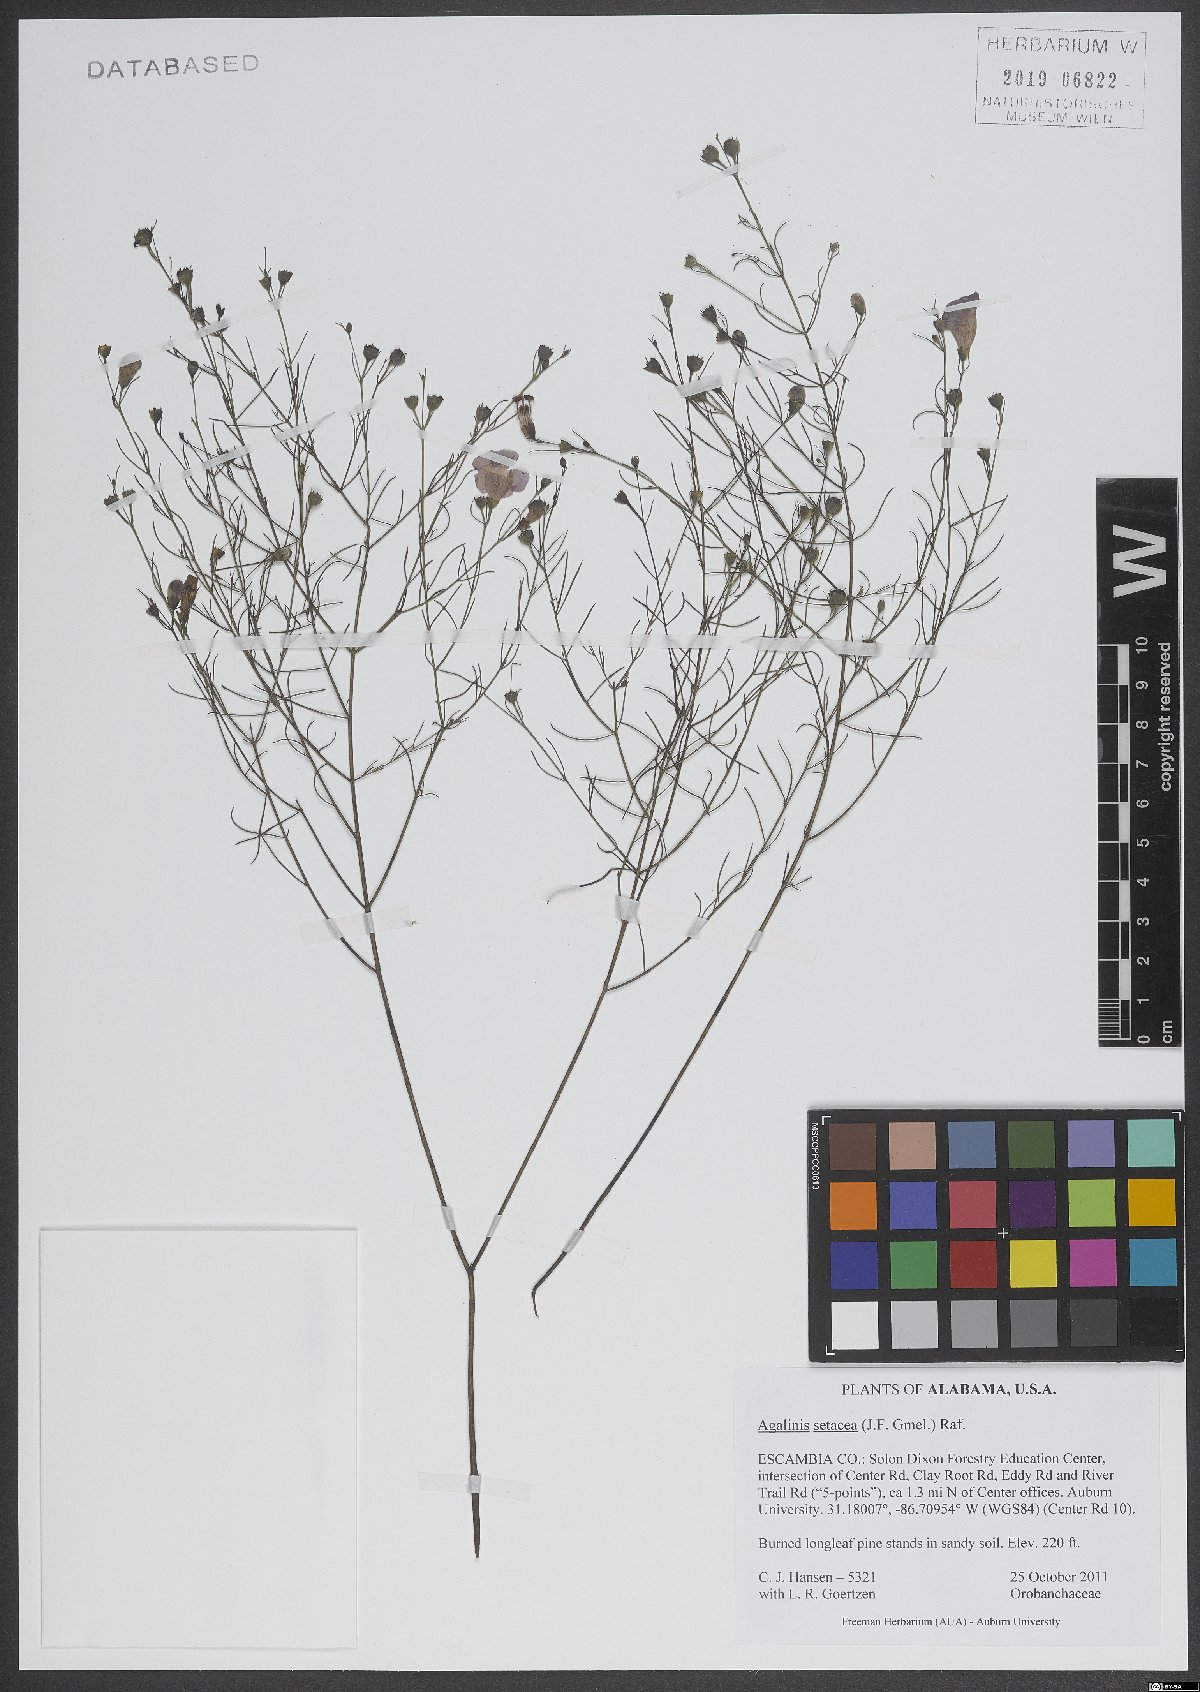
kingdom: Plantae
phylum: Tracheophyta
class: Magnoliopsida
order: Lamiales
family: Orobanchaceae
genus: Agalinis
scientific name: Agalinis setacea
